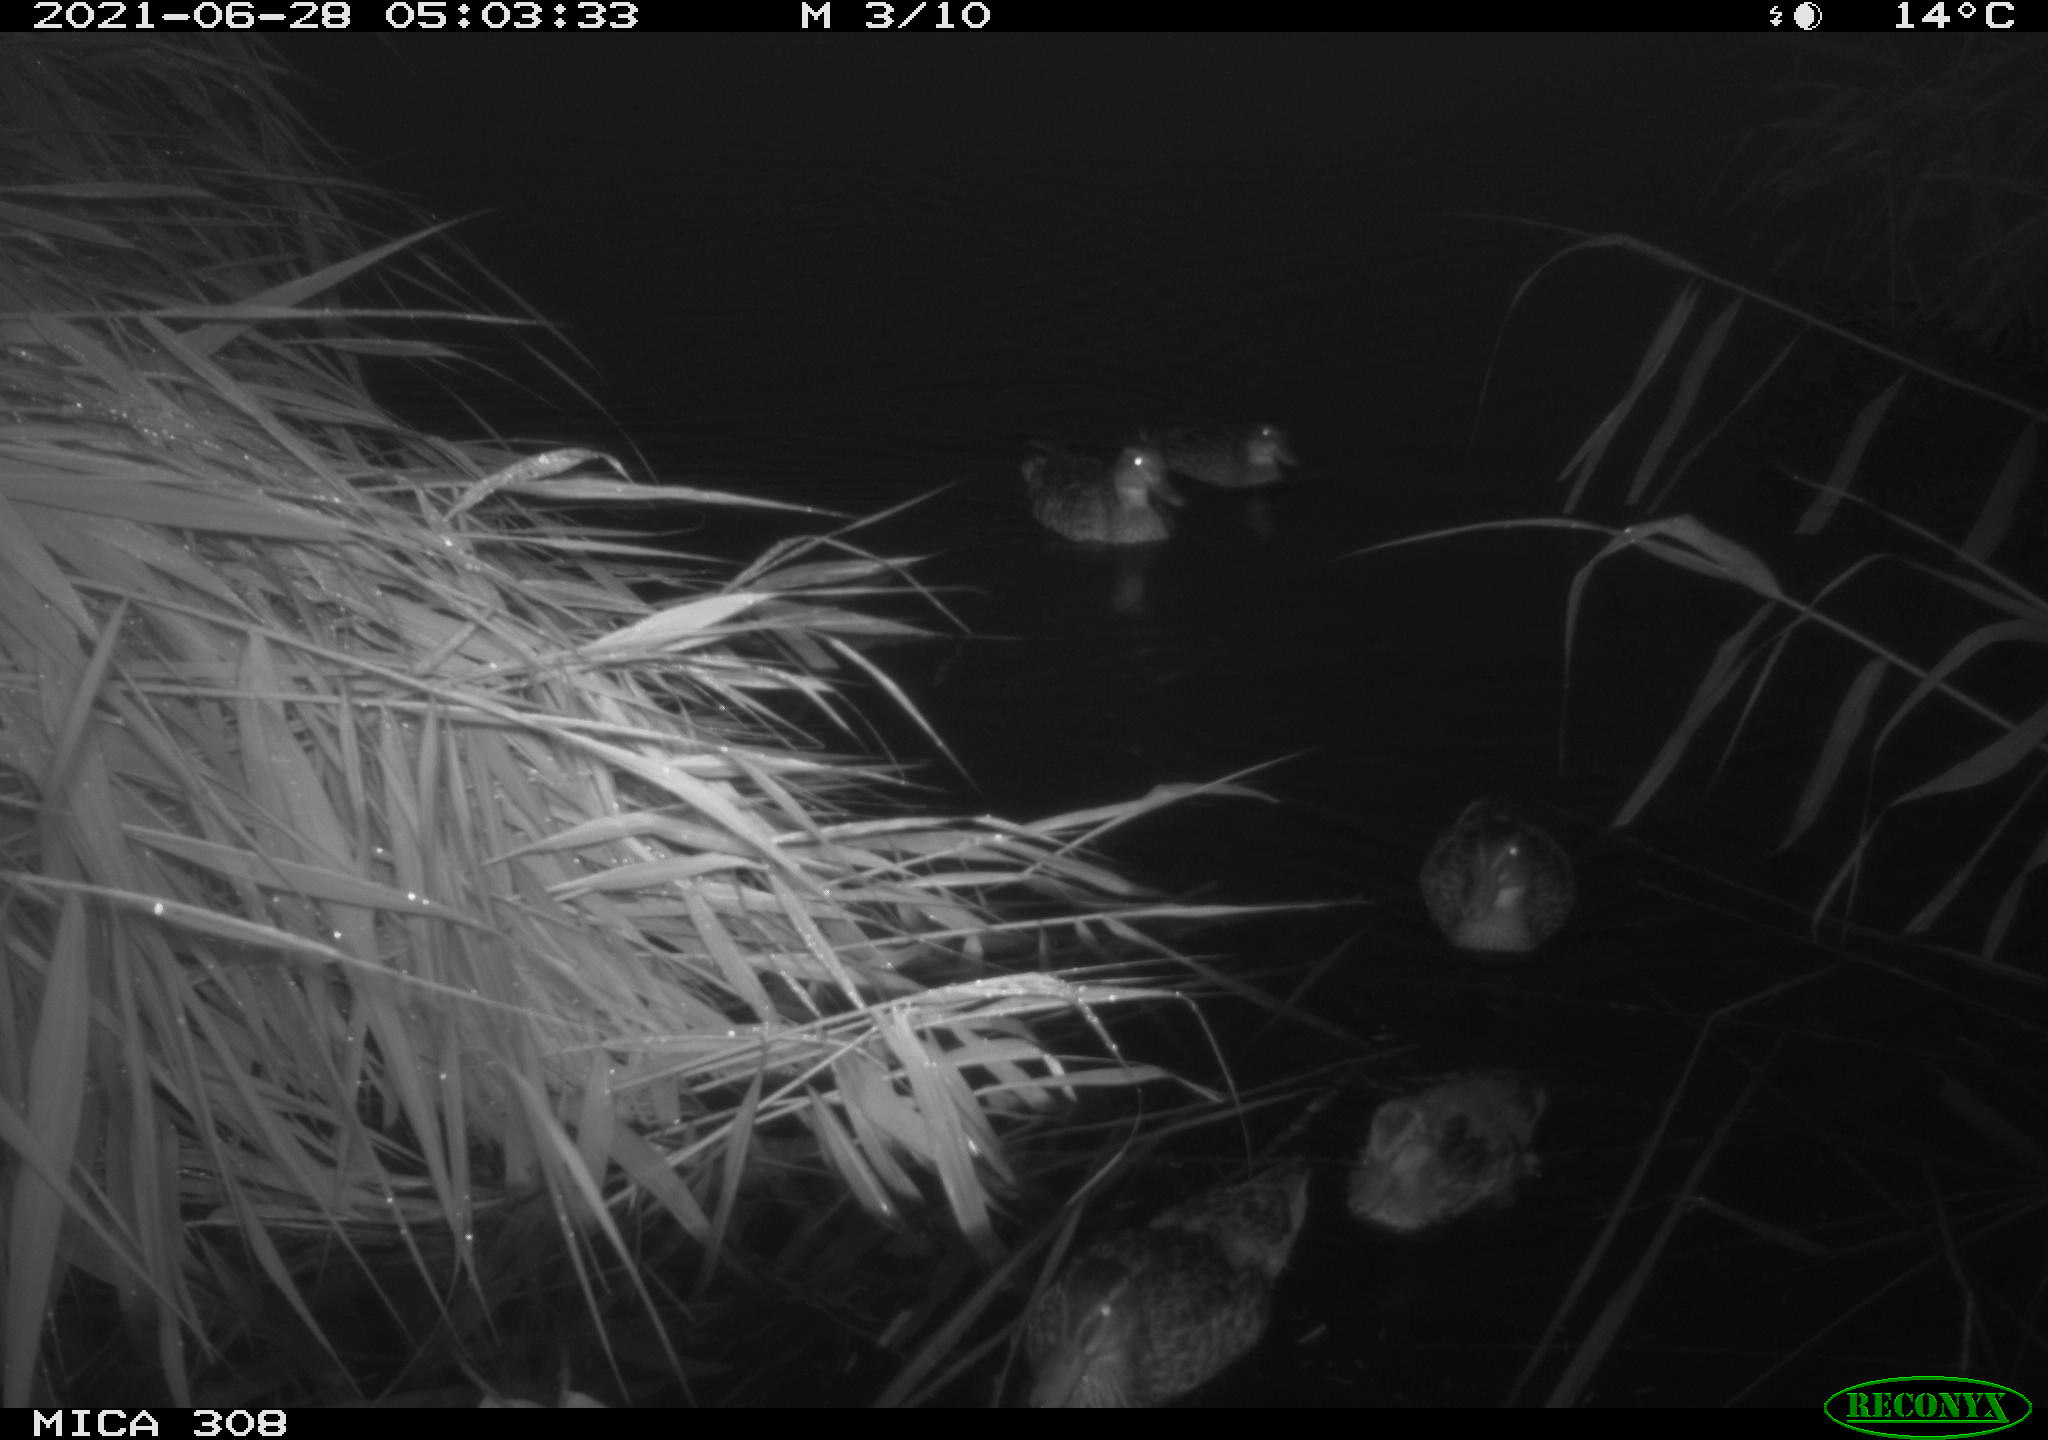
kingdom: Animalia
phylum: Chordata
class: Aves
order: Anseriformes
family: Anatidae
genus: Anas
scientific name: Anas platyrhynchos
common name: Mallard
